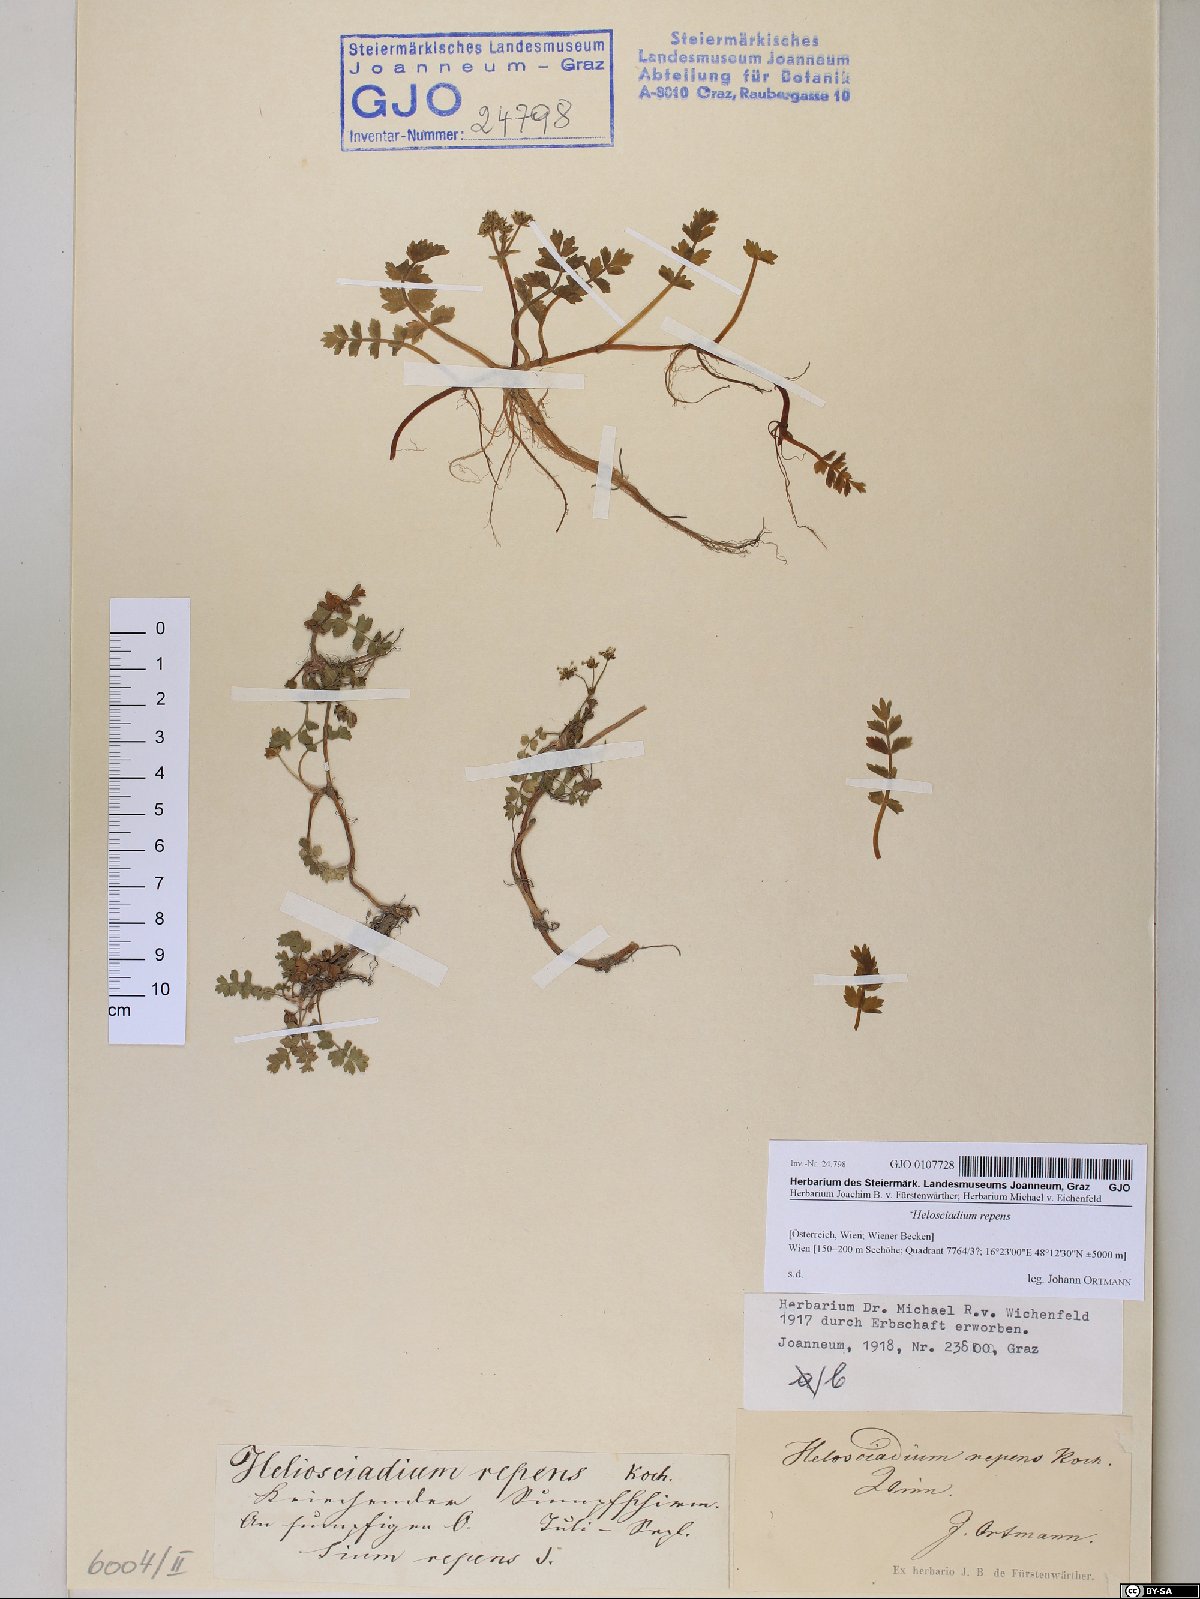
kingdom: Plantae
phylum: Tracheophyta
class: Magnoliopsida
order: Apiales
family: Apiaceae
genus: Helosciadium
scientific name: Helosciadium repens
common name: Creeping marshwort
